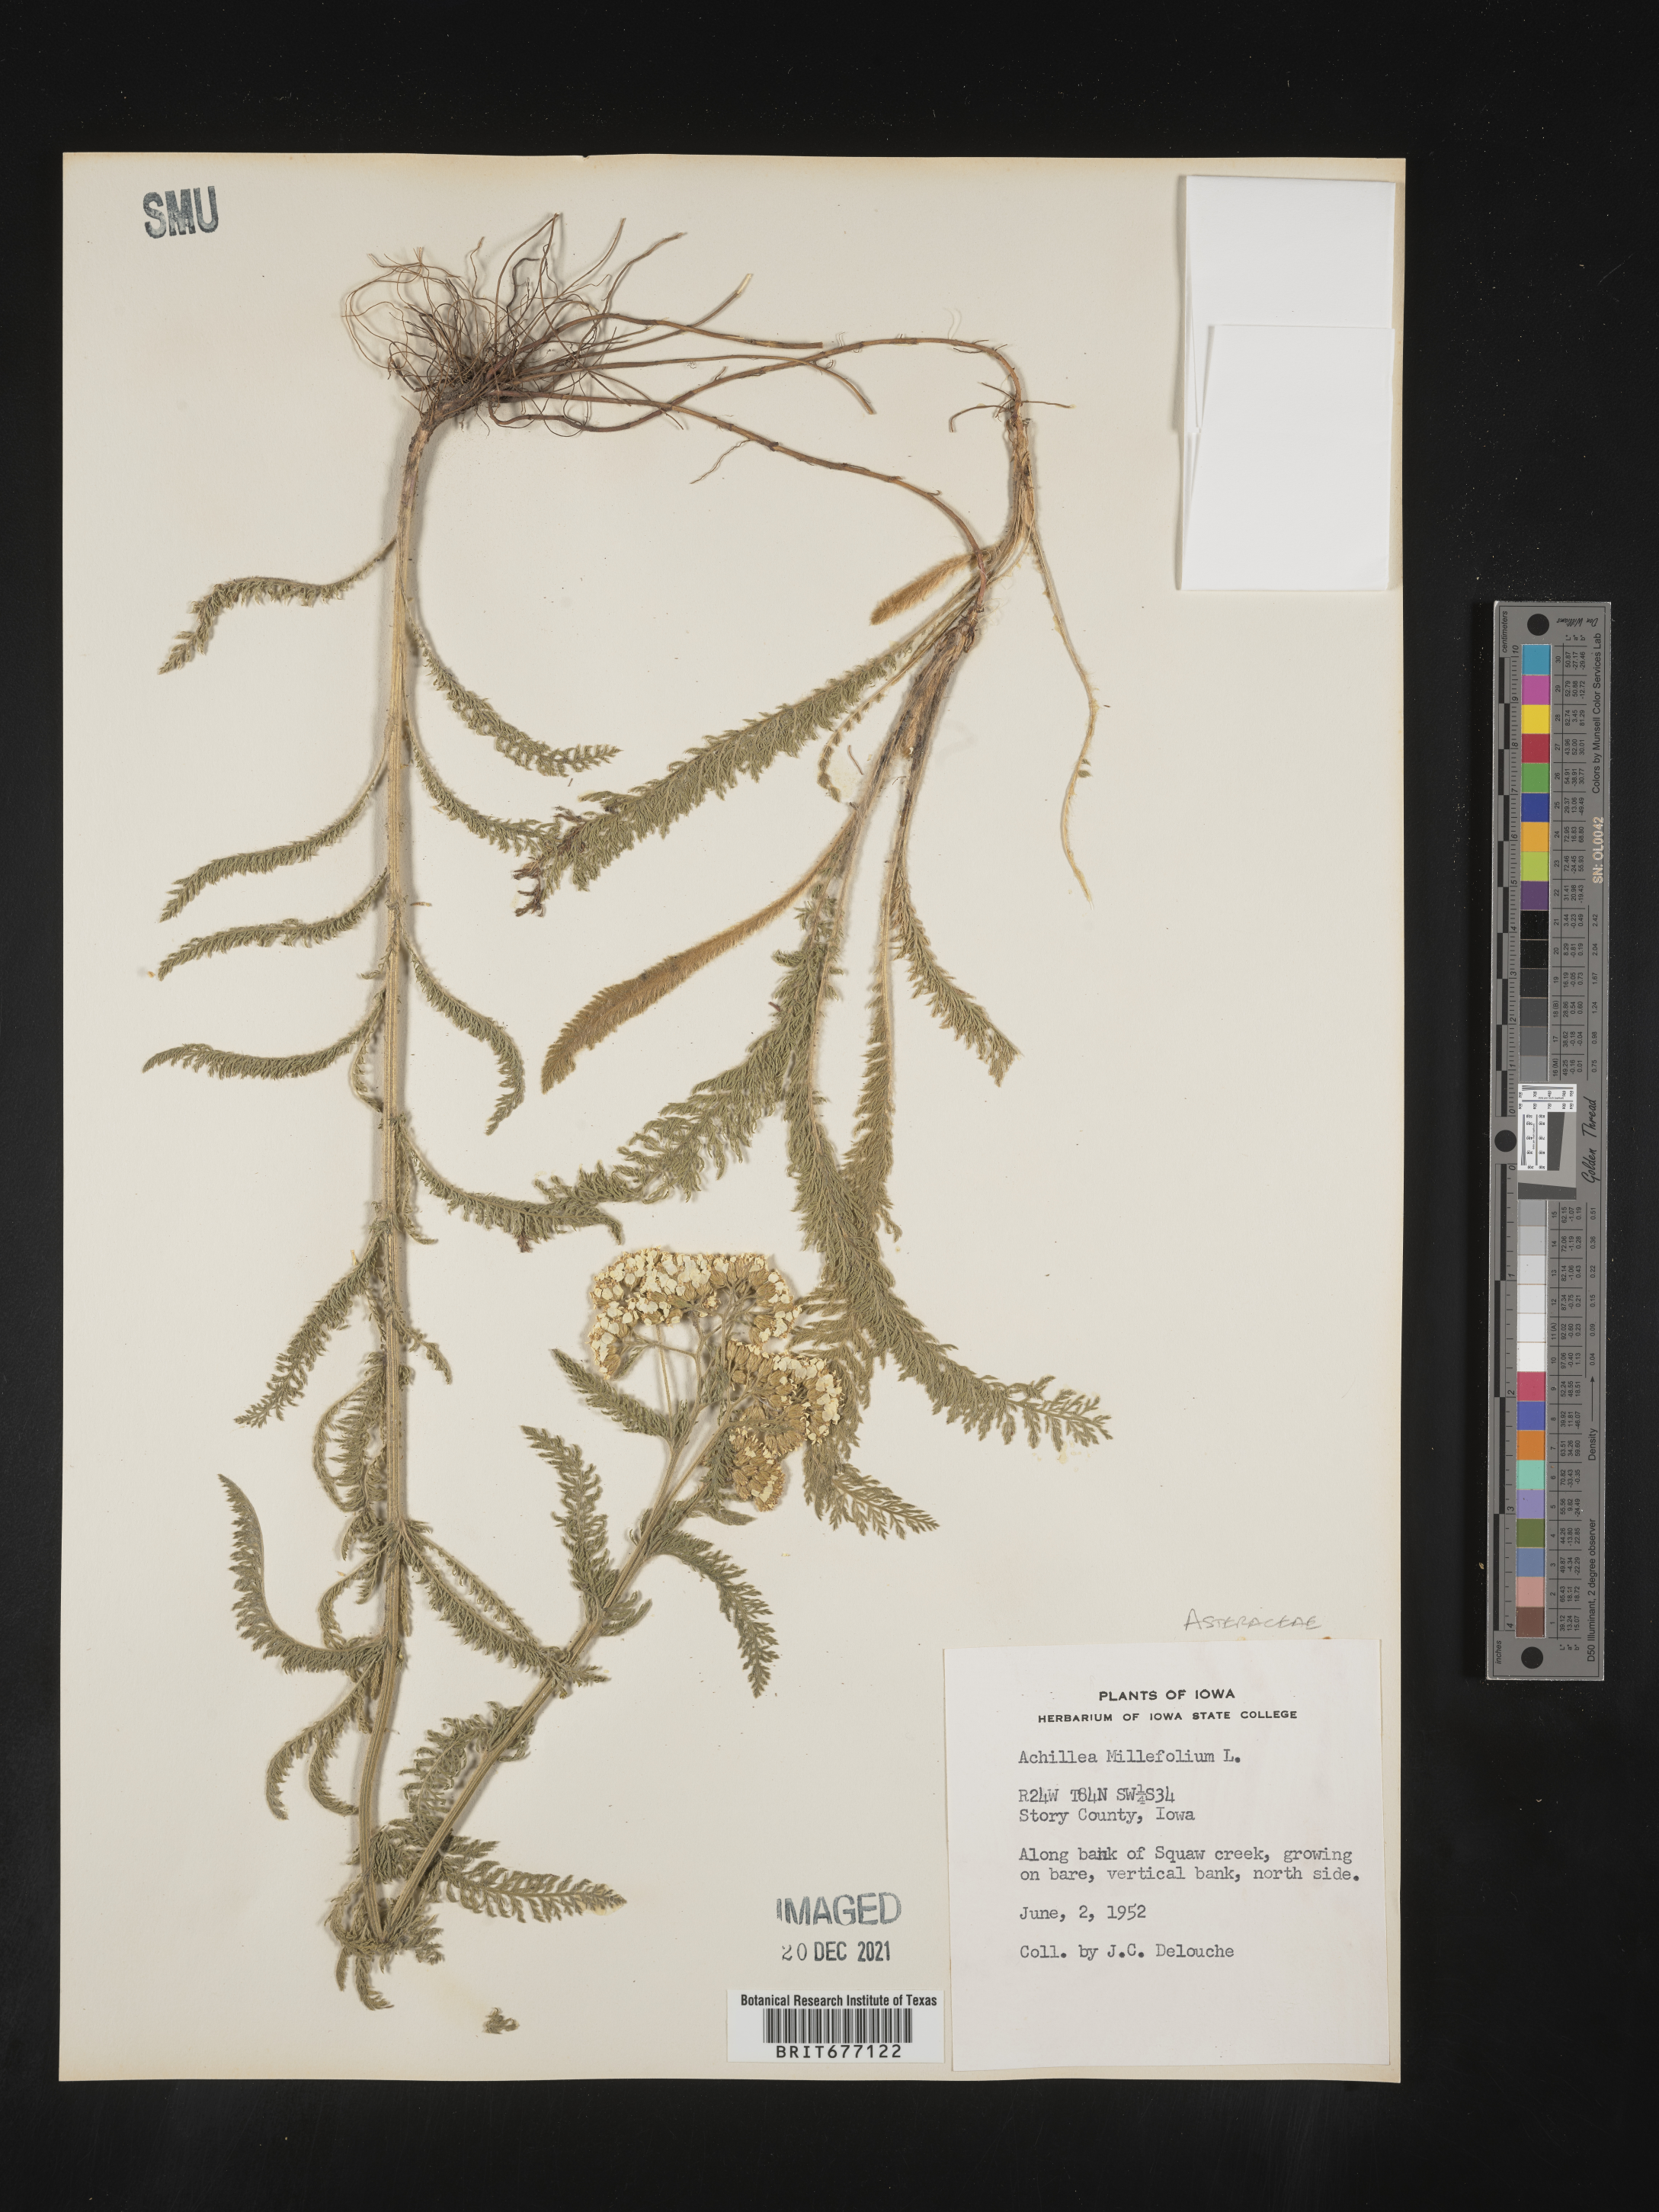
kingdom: Plantae
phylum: Tracheophyta
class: Magnoliopsida
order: Asterales
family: Asteraceae
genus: Achillea
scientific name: Achillea millefolium
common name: Yarrow
